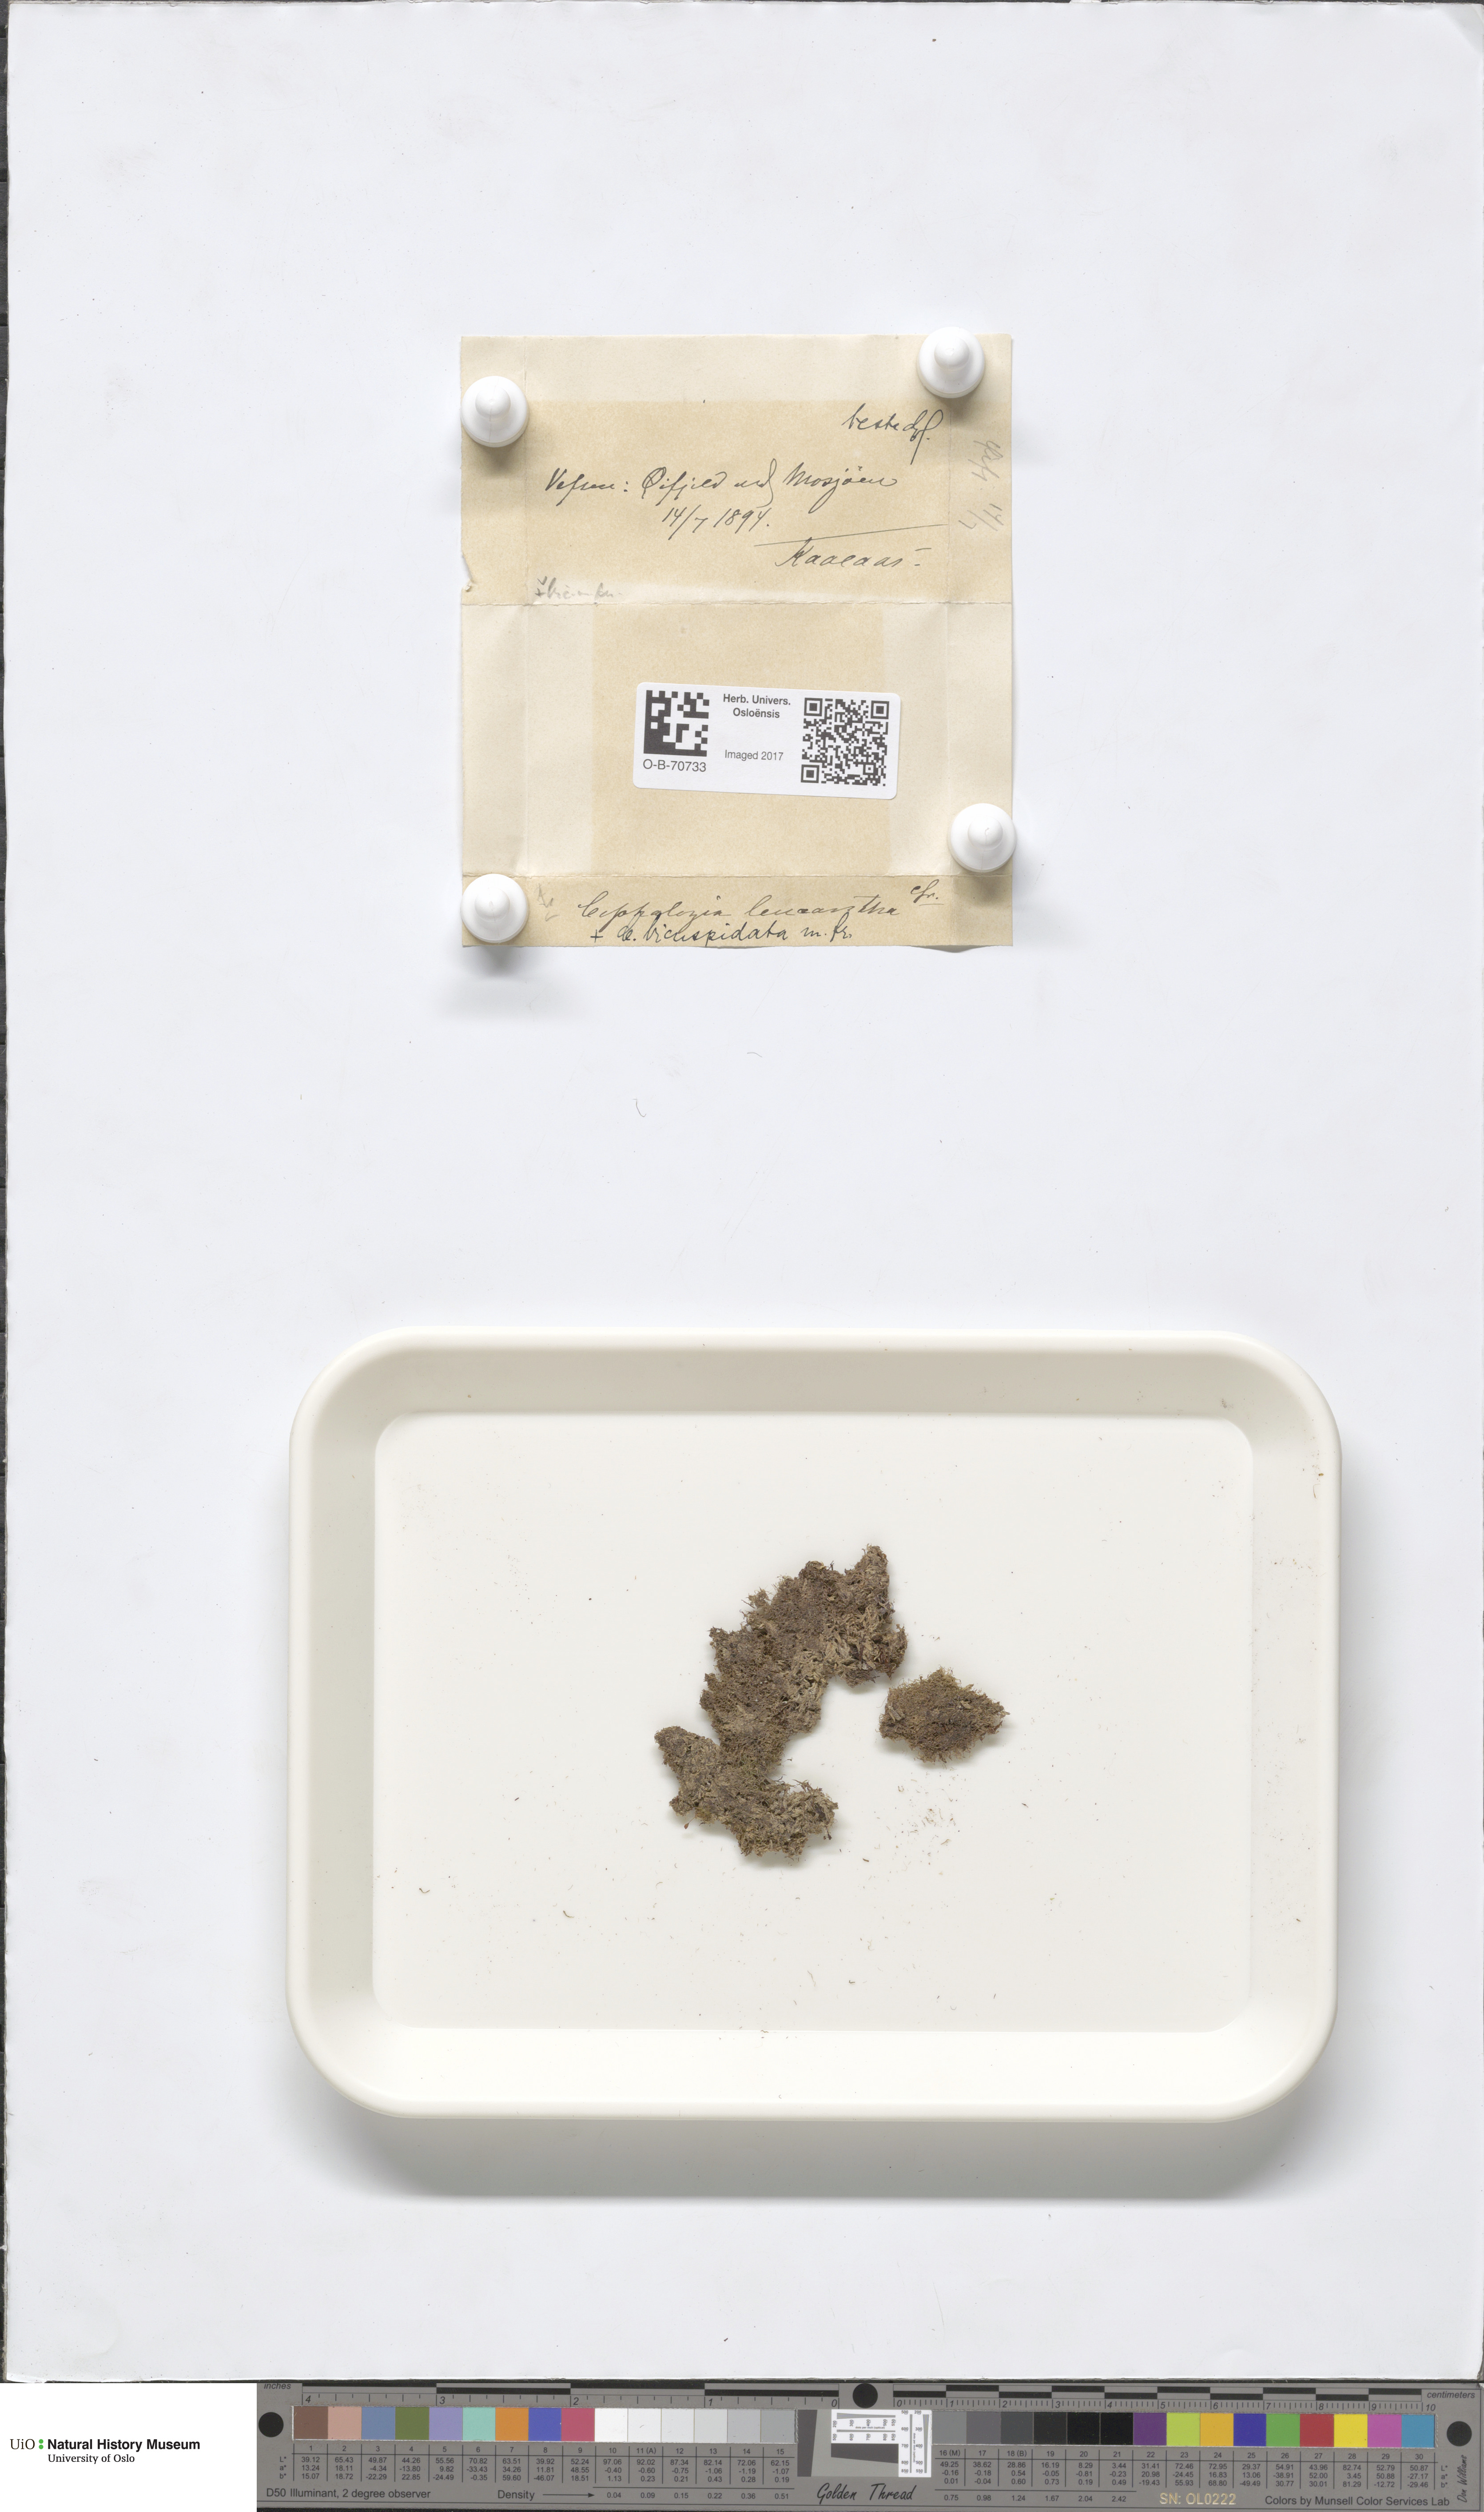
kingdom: Plantae
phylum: Marchantiophyta
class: Jungermanniopsida
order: Jungermanniales
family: Cephaloziaceae
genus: Fuscocephaloziopsis
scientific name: Fuscocephaloziopsis leucantha
